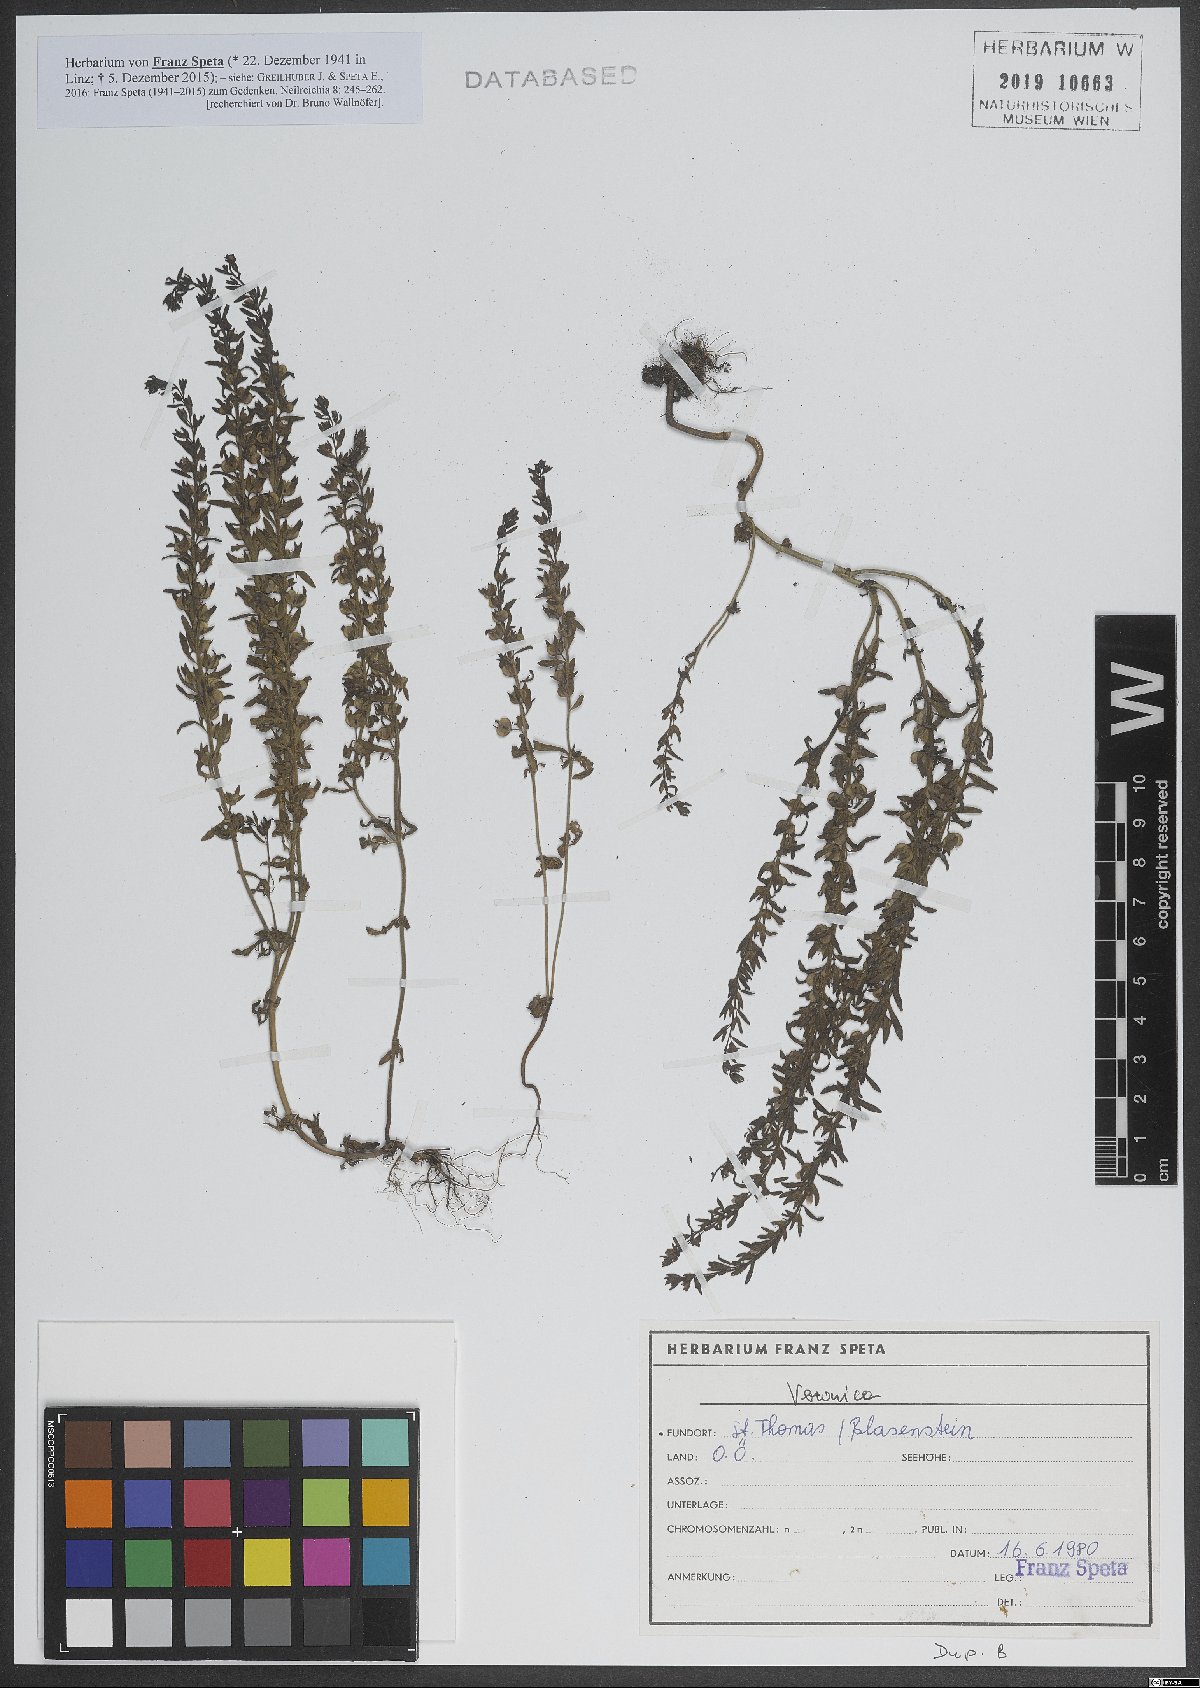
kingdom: Plantae
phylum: Tracheophyta
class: Magnoliopsida
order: Lamiales
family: Plantaginaceae
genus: Veronica
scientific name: Veronica
